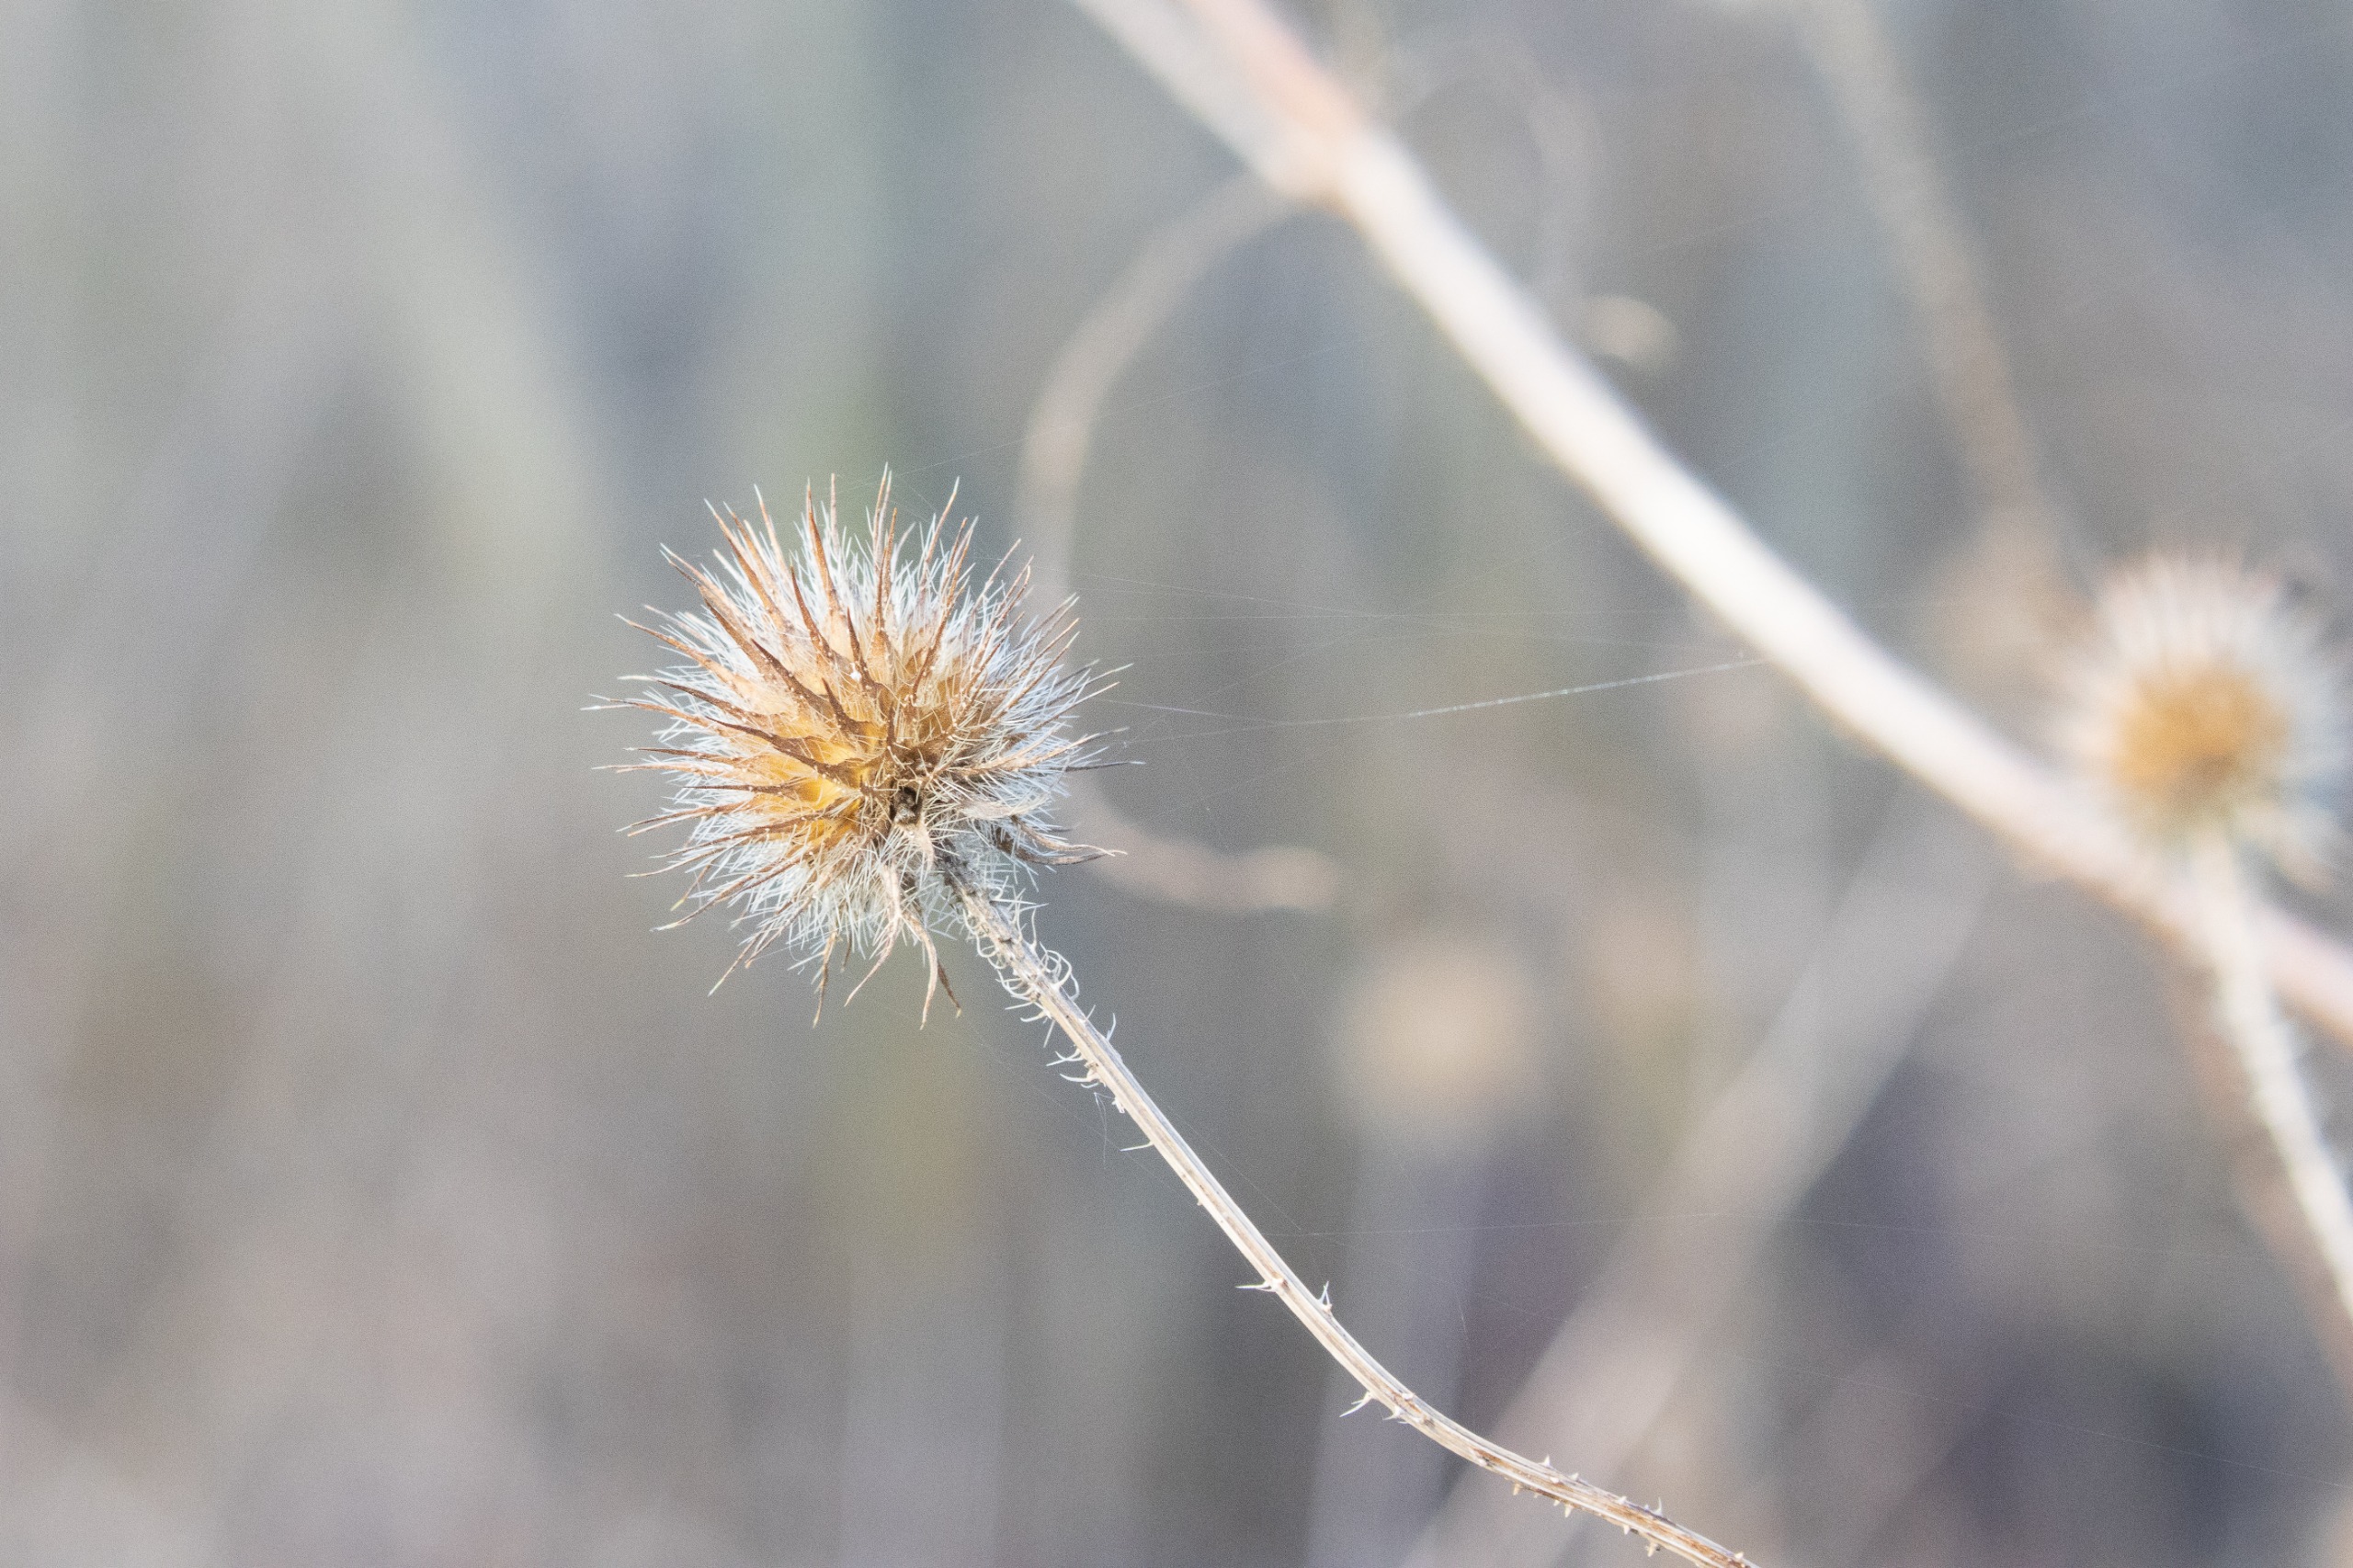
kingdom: Plantae
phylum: Tracheophyta
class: Magnoliopsida
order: Dipsacales
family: Caprifoliaceae
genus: Dipsacus
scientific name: Dipsacus strigosus
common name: Pindsvin-kartebolle
